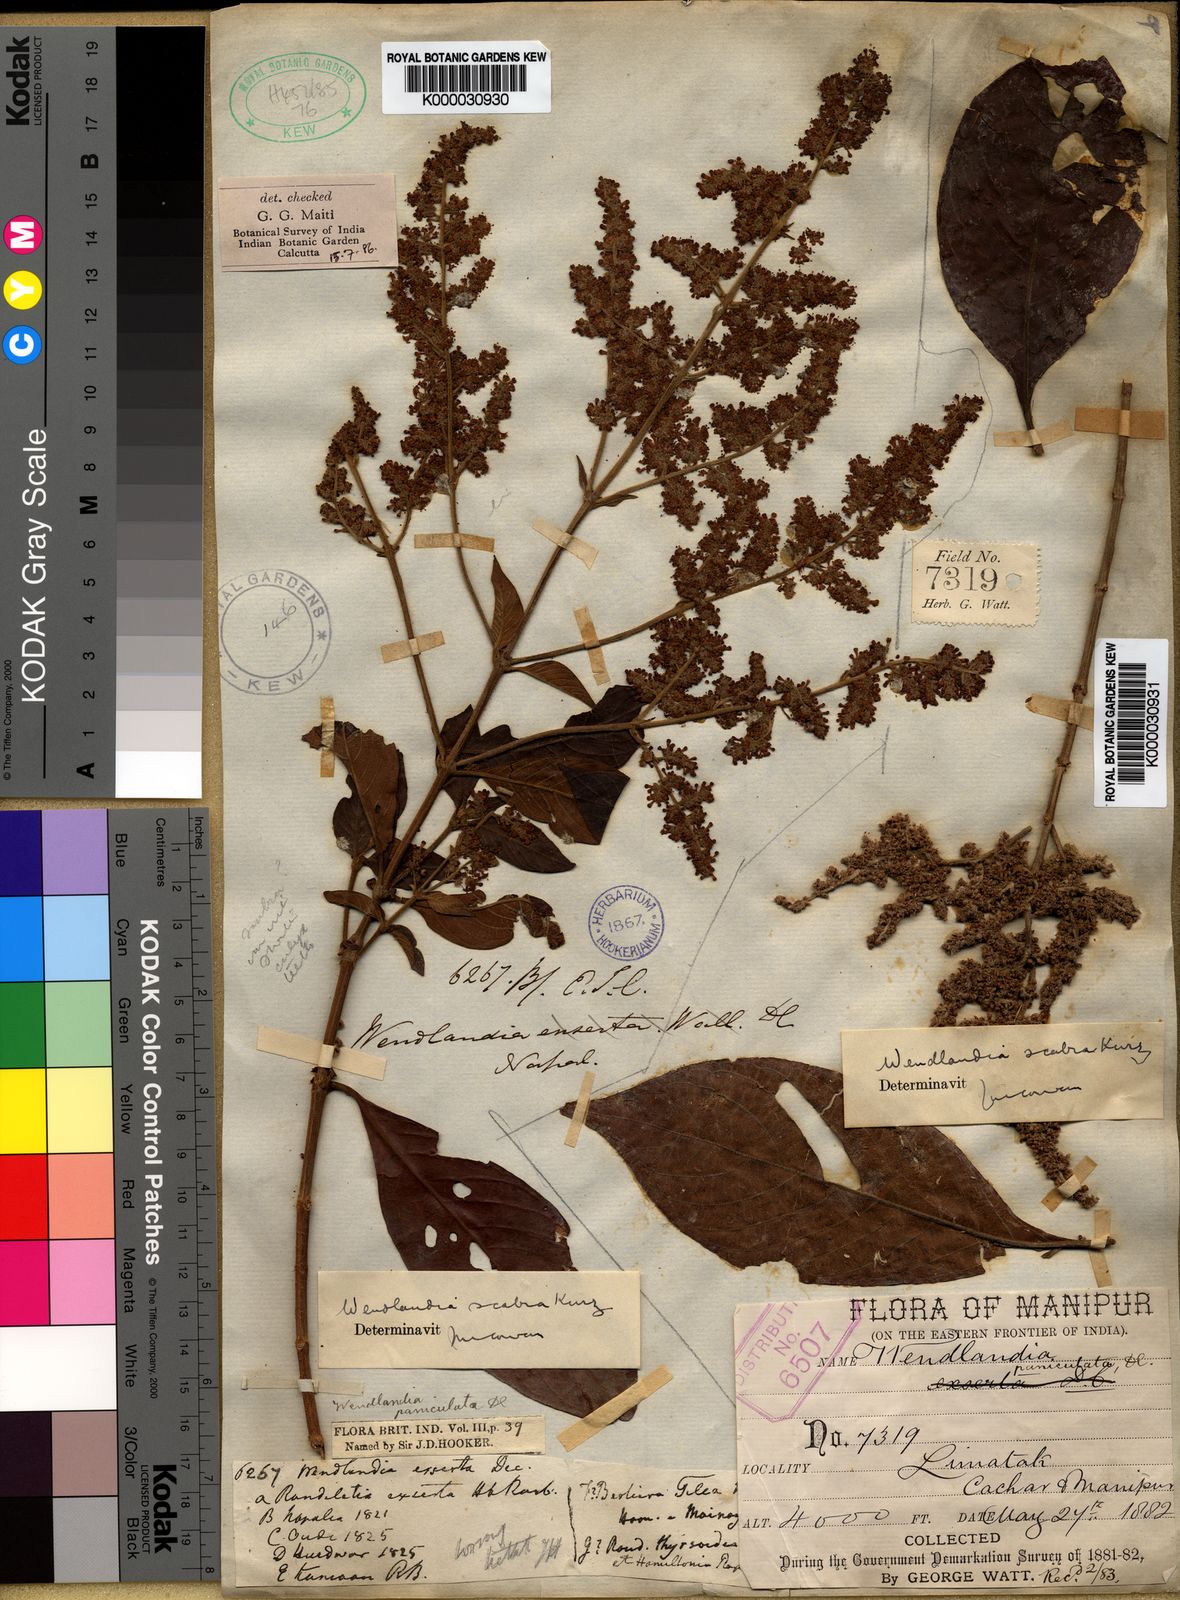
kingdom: Plantae
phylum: Tracheophyta
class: Magnoliopsida
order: Gentianales
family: Rubiaceae
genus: Wendlandia
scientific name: Wendlandia scabra
